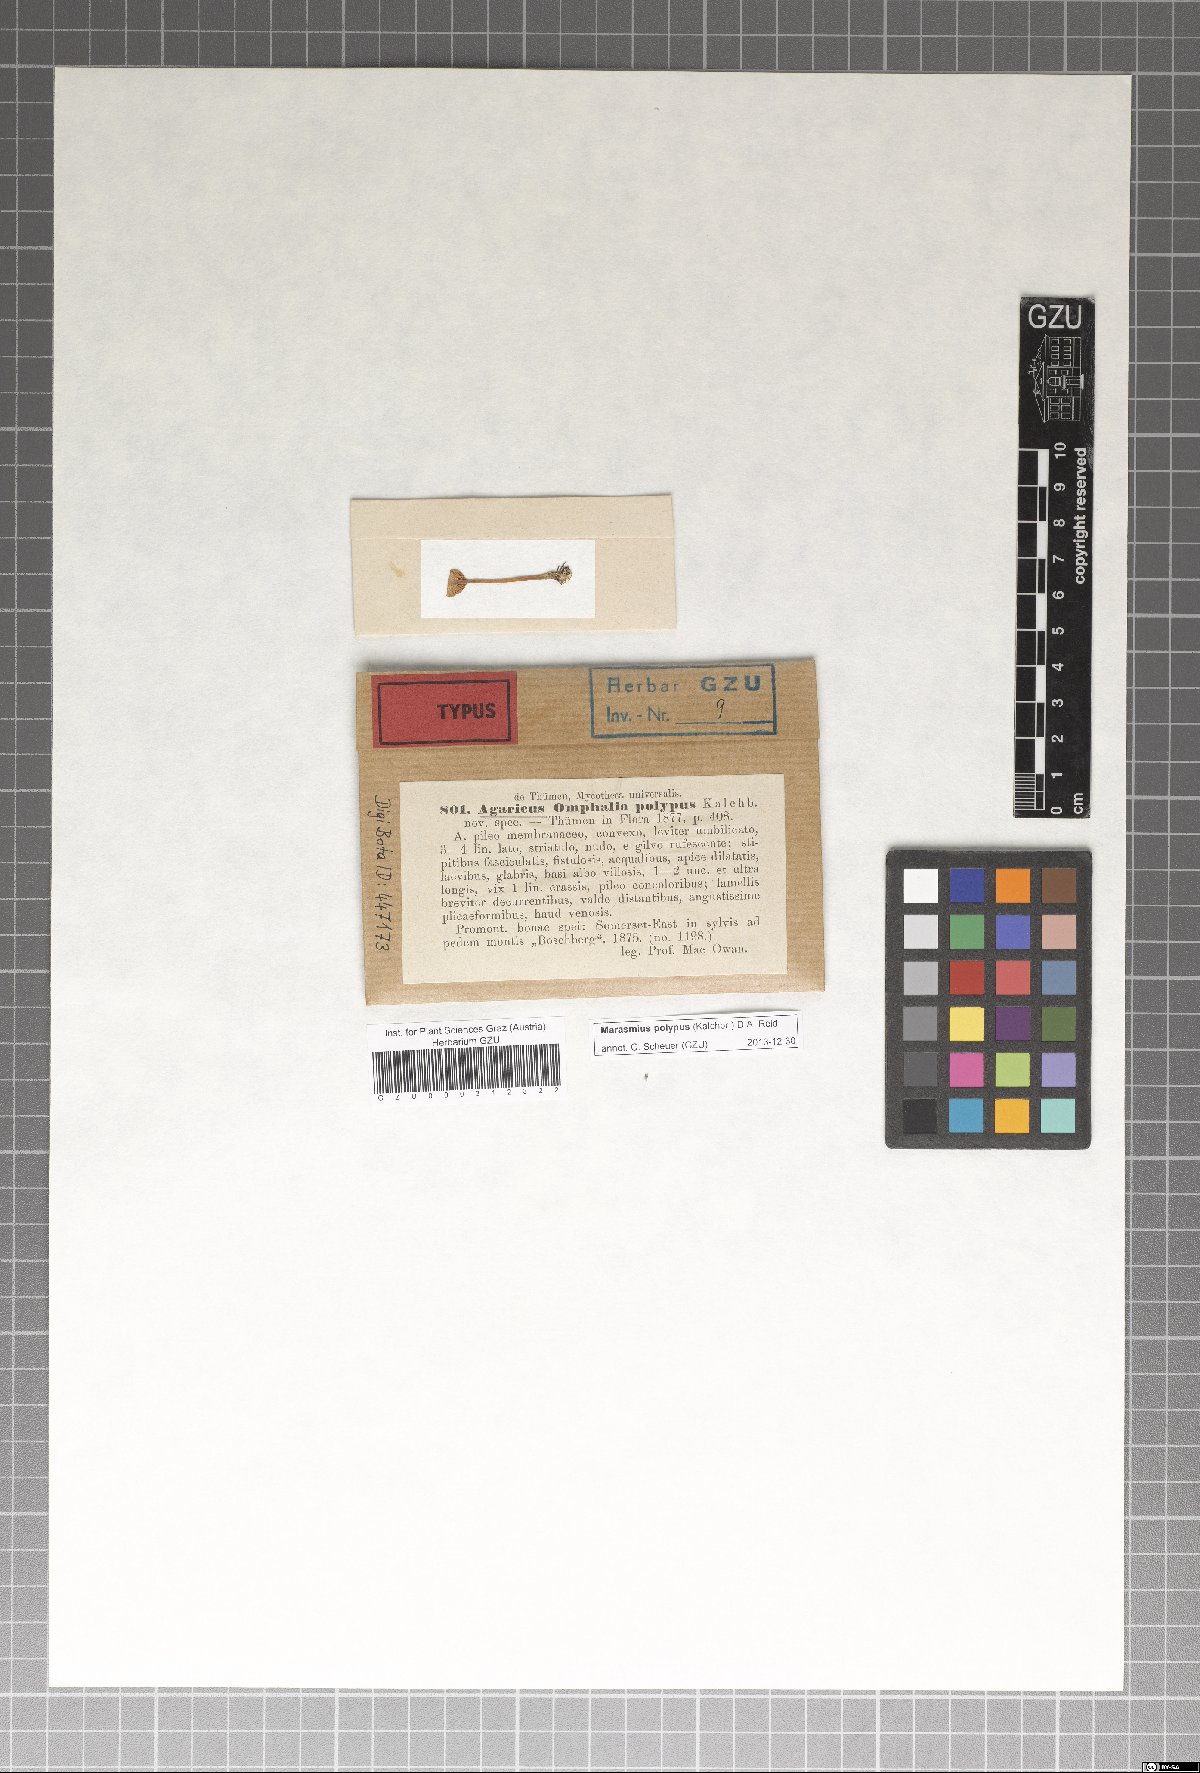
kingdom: Fungi
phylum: Basidiomycota
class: Agaricomycetes
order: Agaricales
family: Marasmiaceae
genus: Marasmius
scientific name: Marasmius polypus
